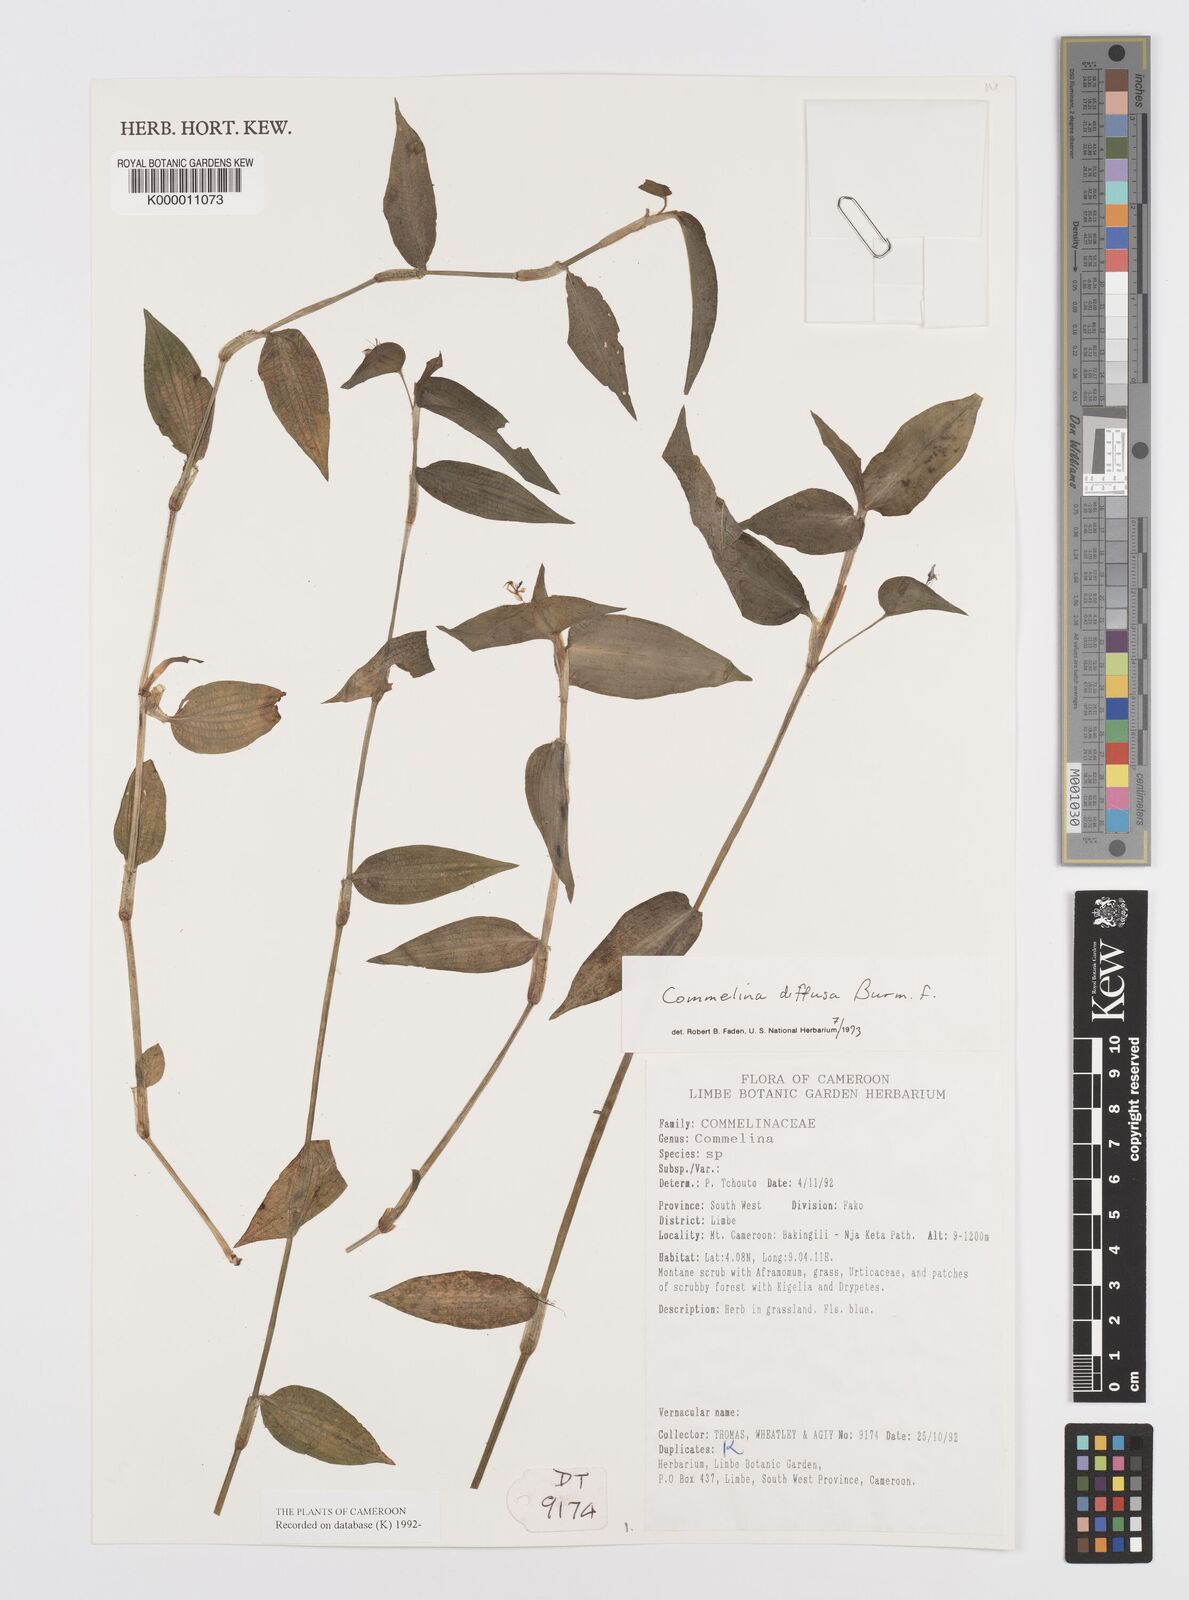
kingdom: Plantae
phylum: Tracheophyta
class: Liliopsida
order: Commelinales
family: Commelinaceae
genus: Commelina
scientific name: Commelina diffusa
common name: Climbing dayflower
